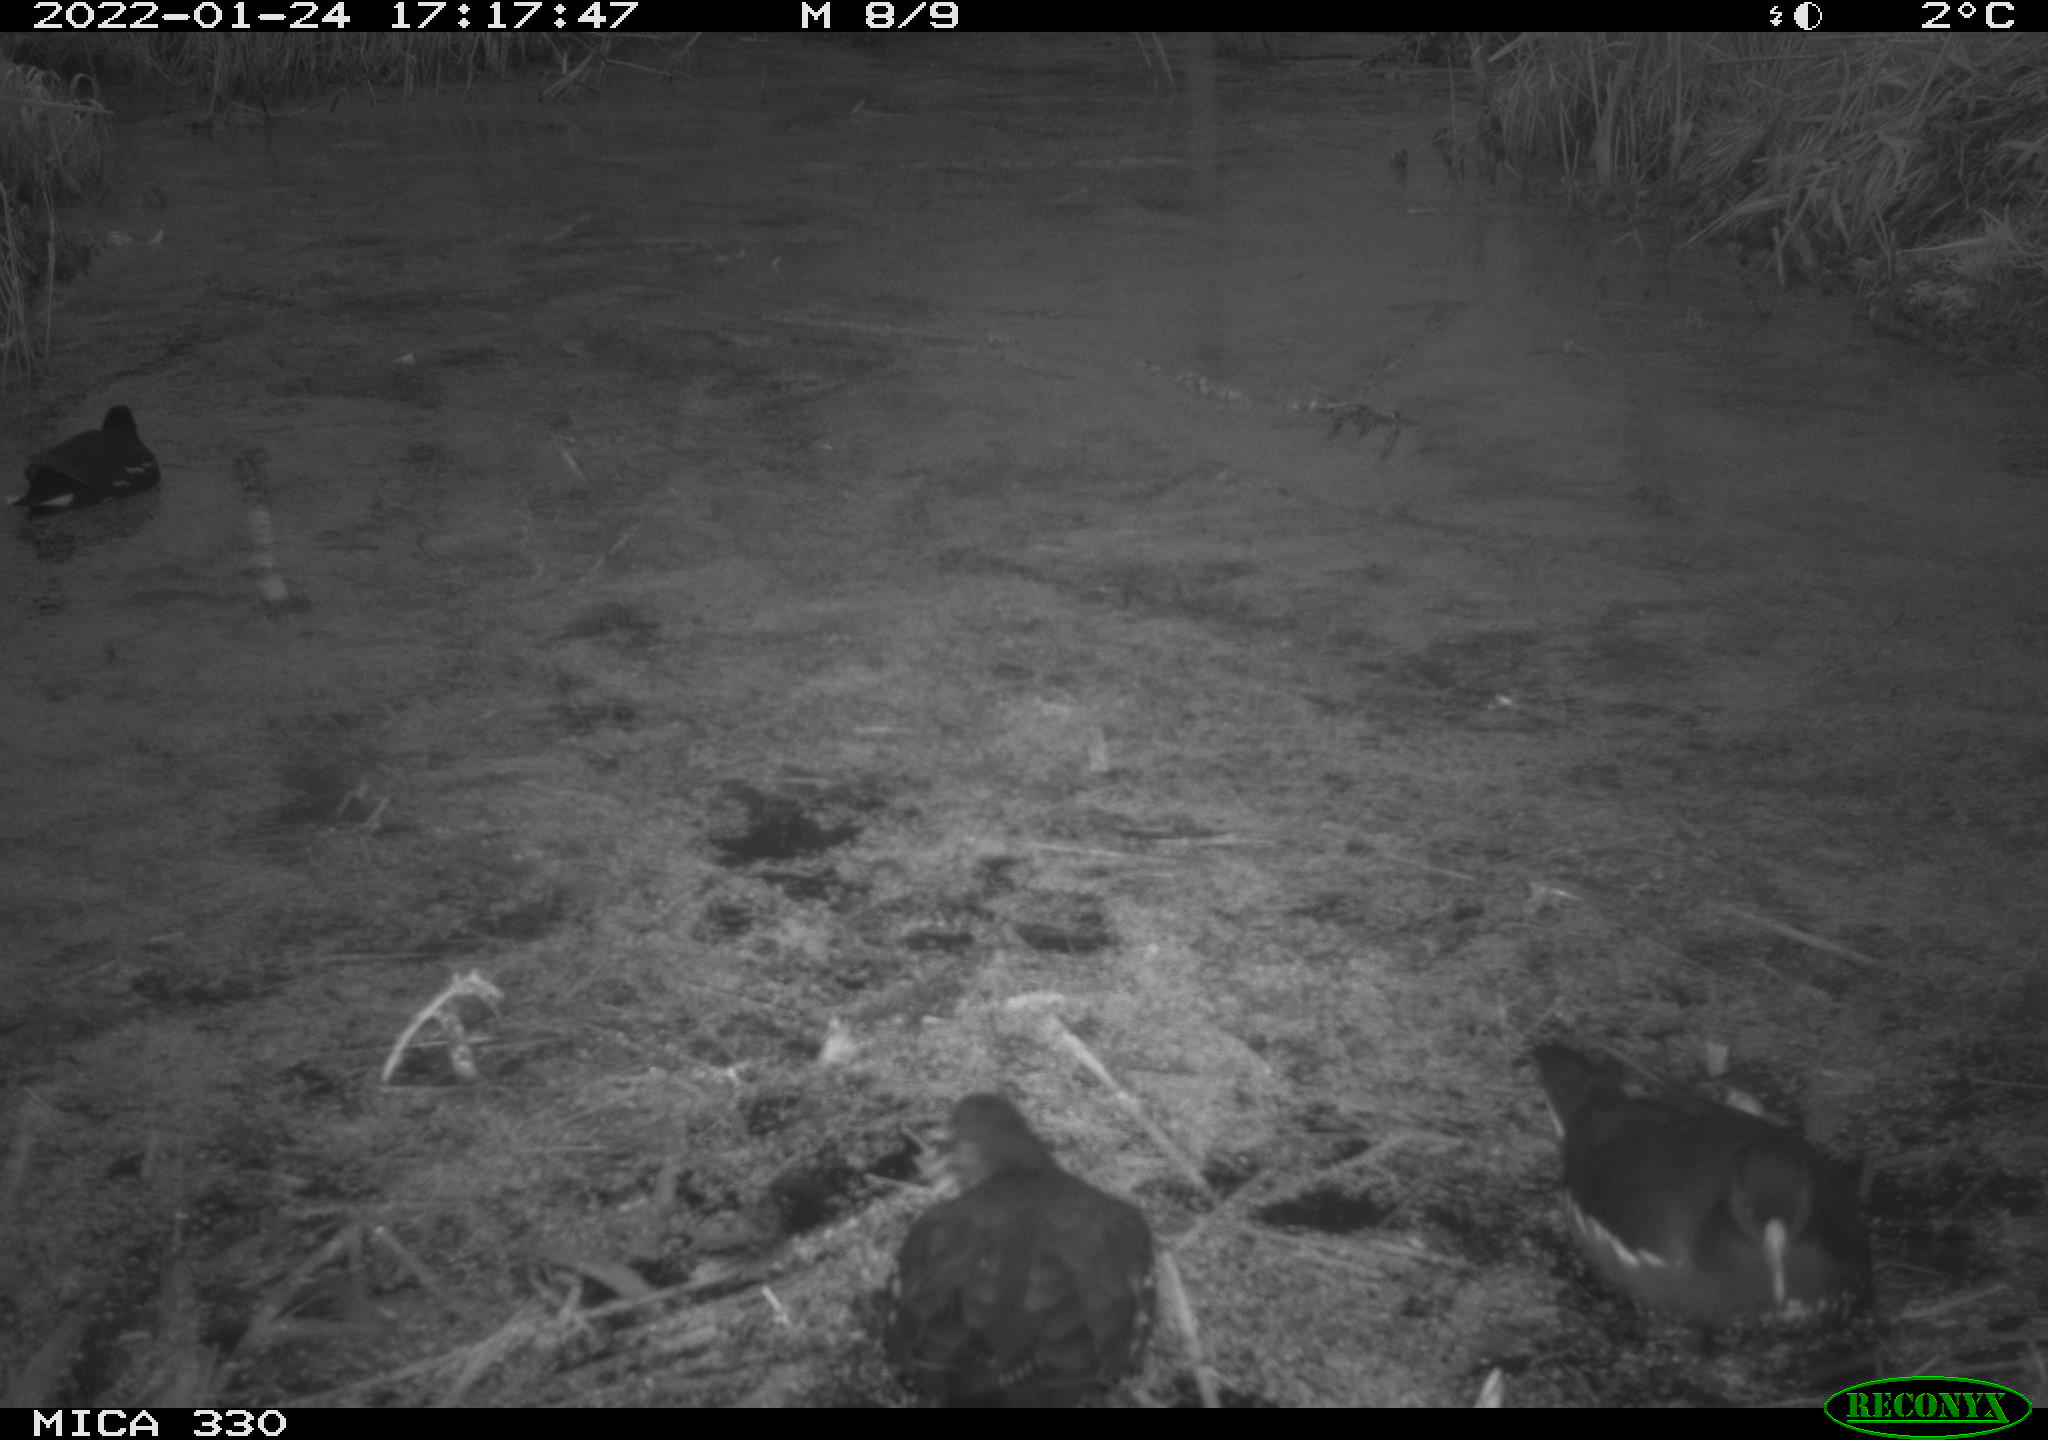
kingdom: Animalia
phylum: Chordata
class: Aves
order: Gruiformes
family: Rallidae
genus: Gallinula
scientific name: Gallinula chloropus
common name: Common moorhen
